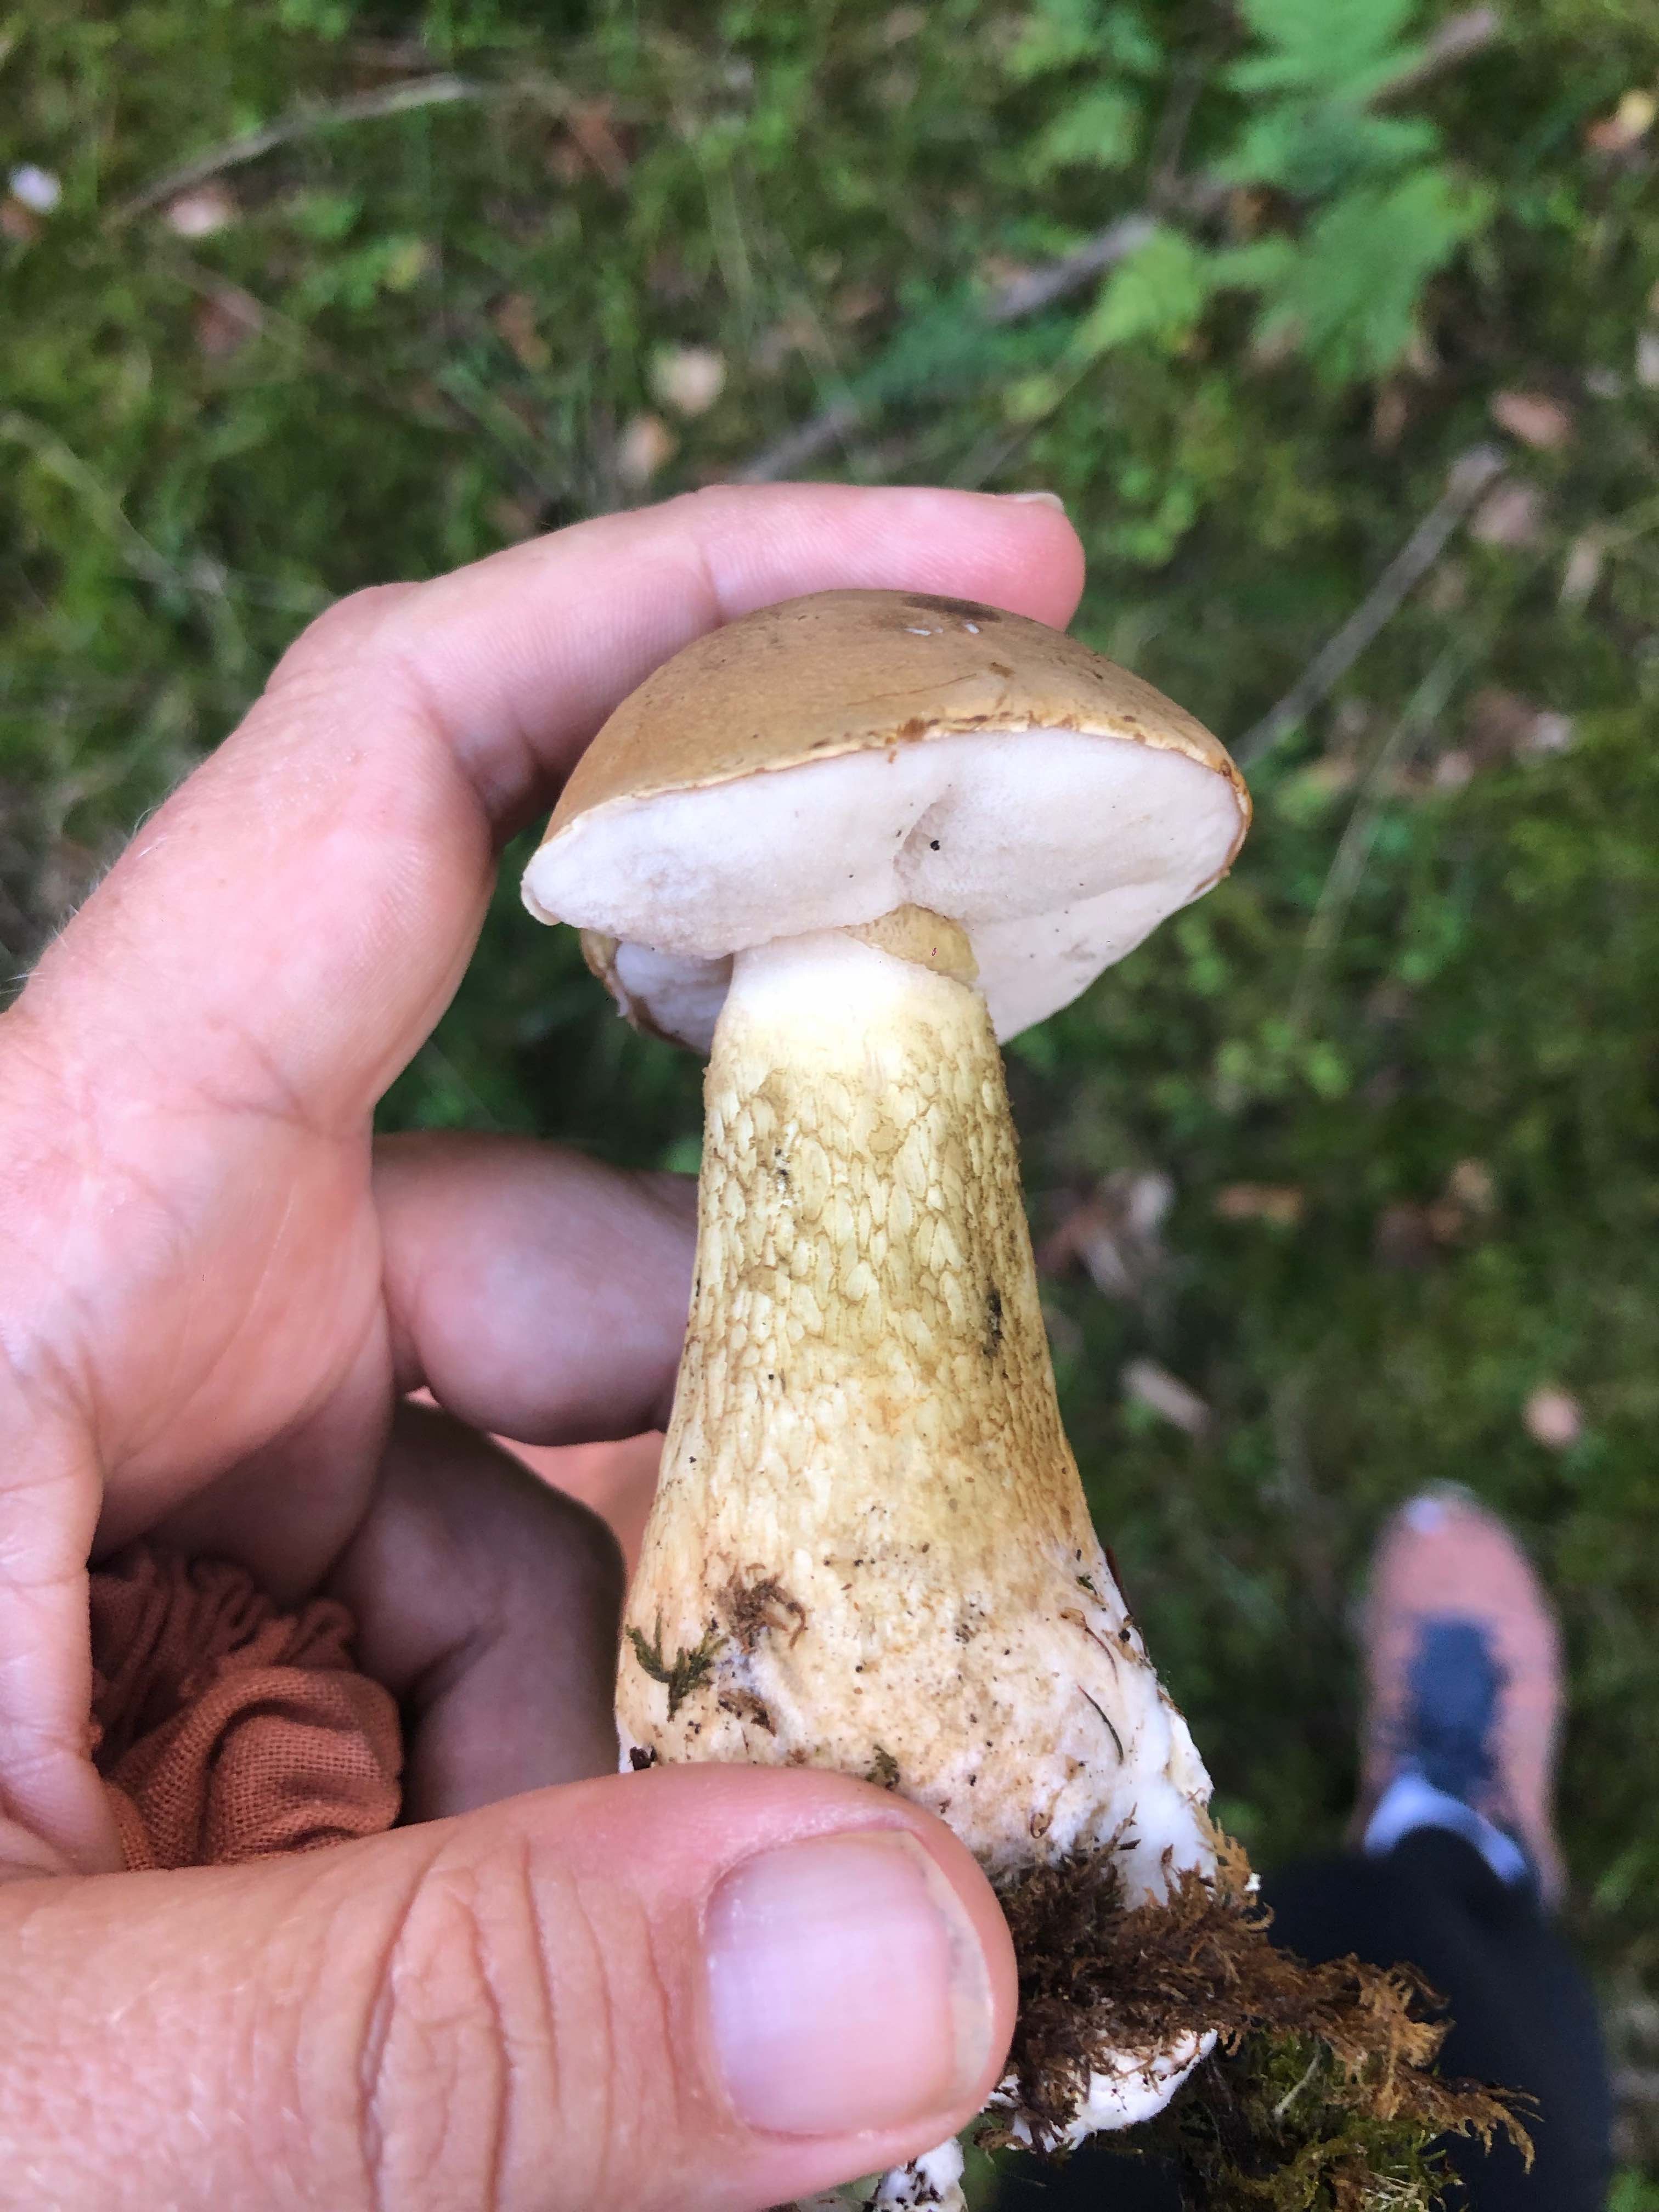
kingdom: Fungi
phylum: Basidiomycota
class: Agaricomycetes
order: Boletales
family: Boletaceae
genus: Tylopilus
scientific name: Tylopilus felleus
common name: galderørhat
